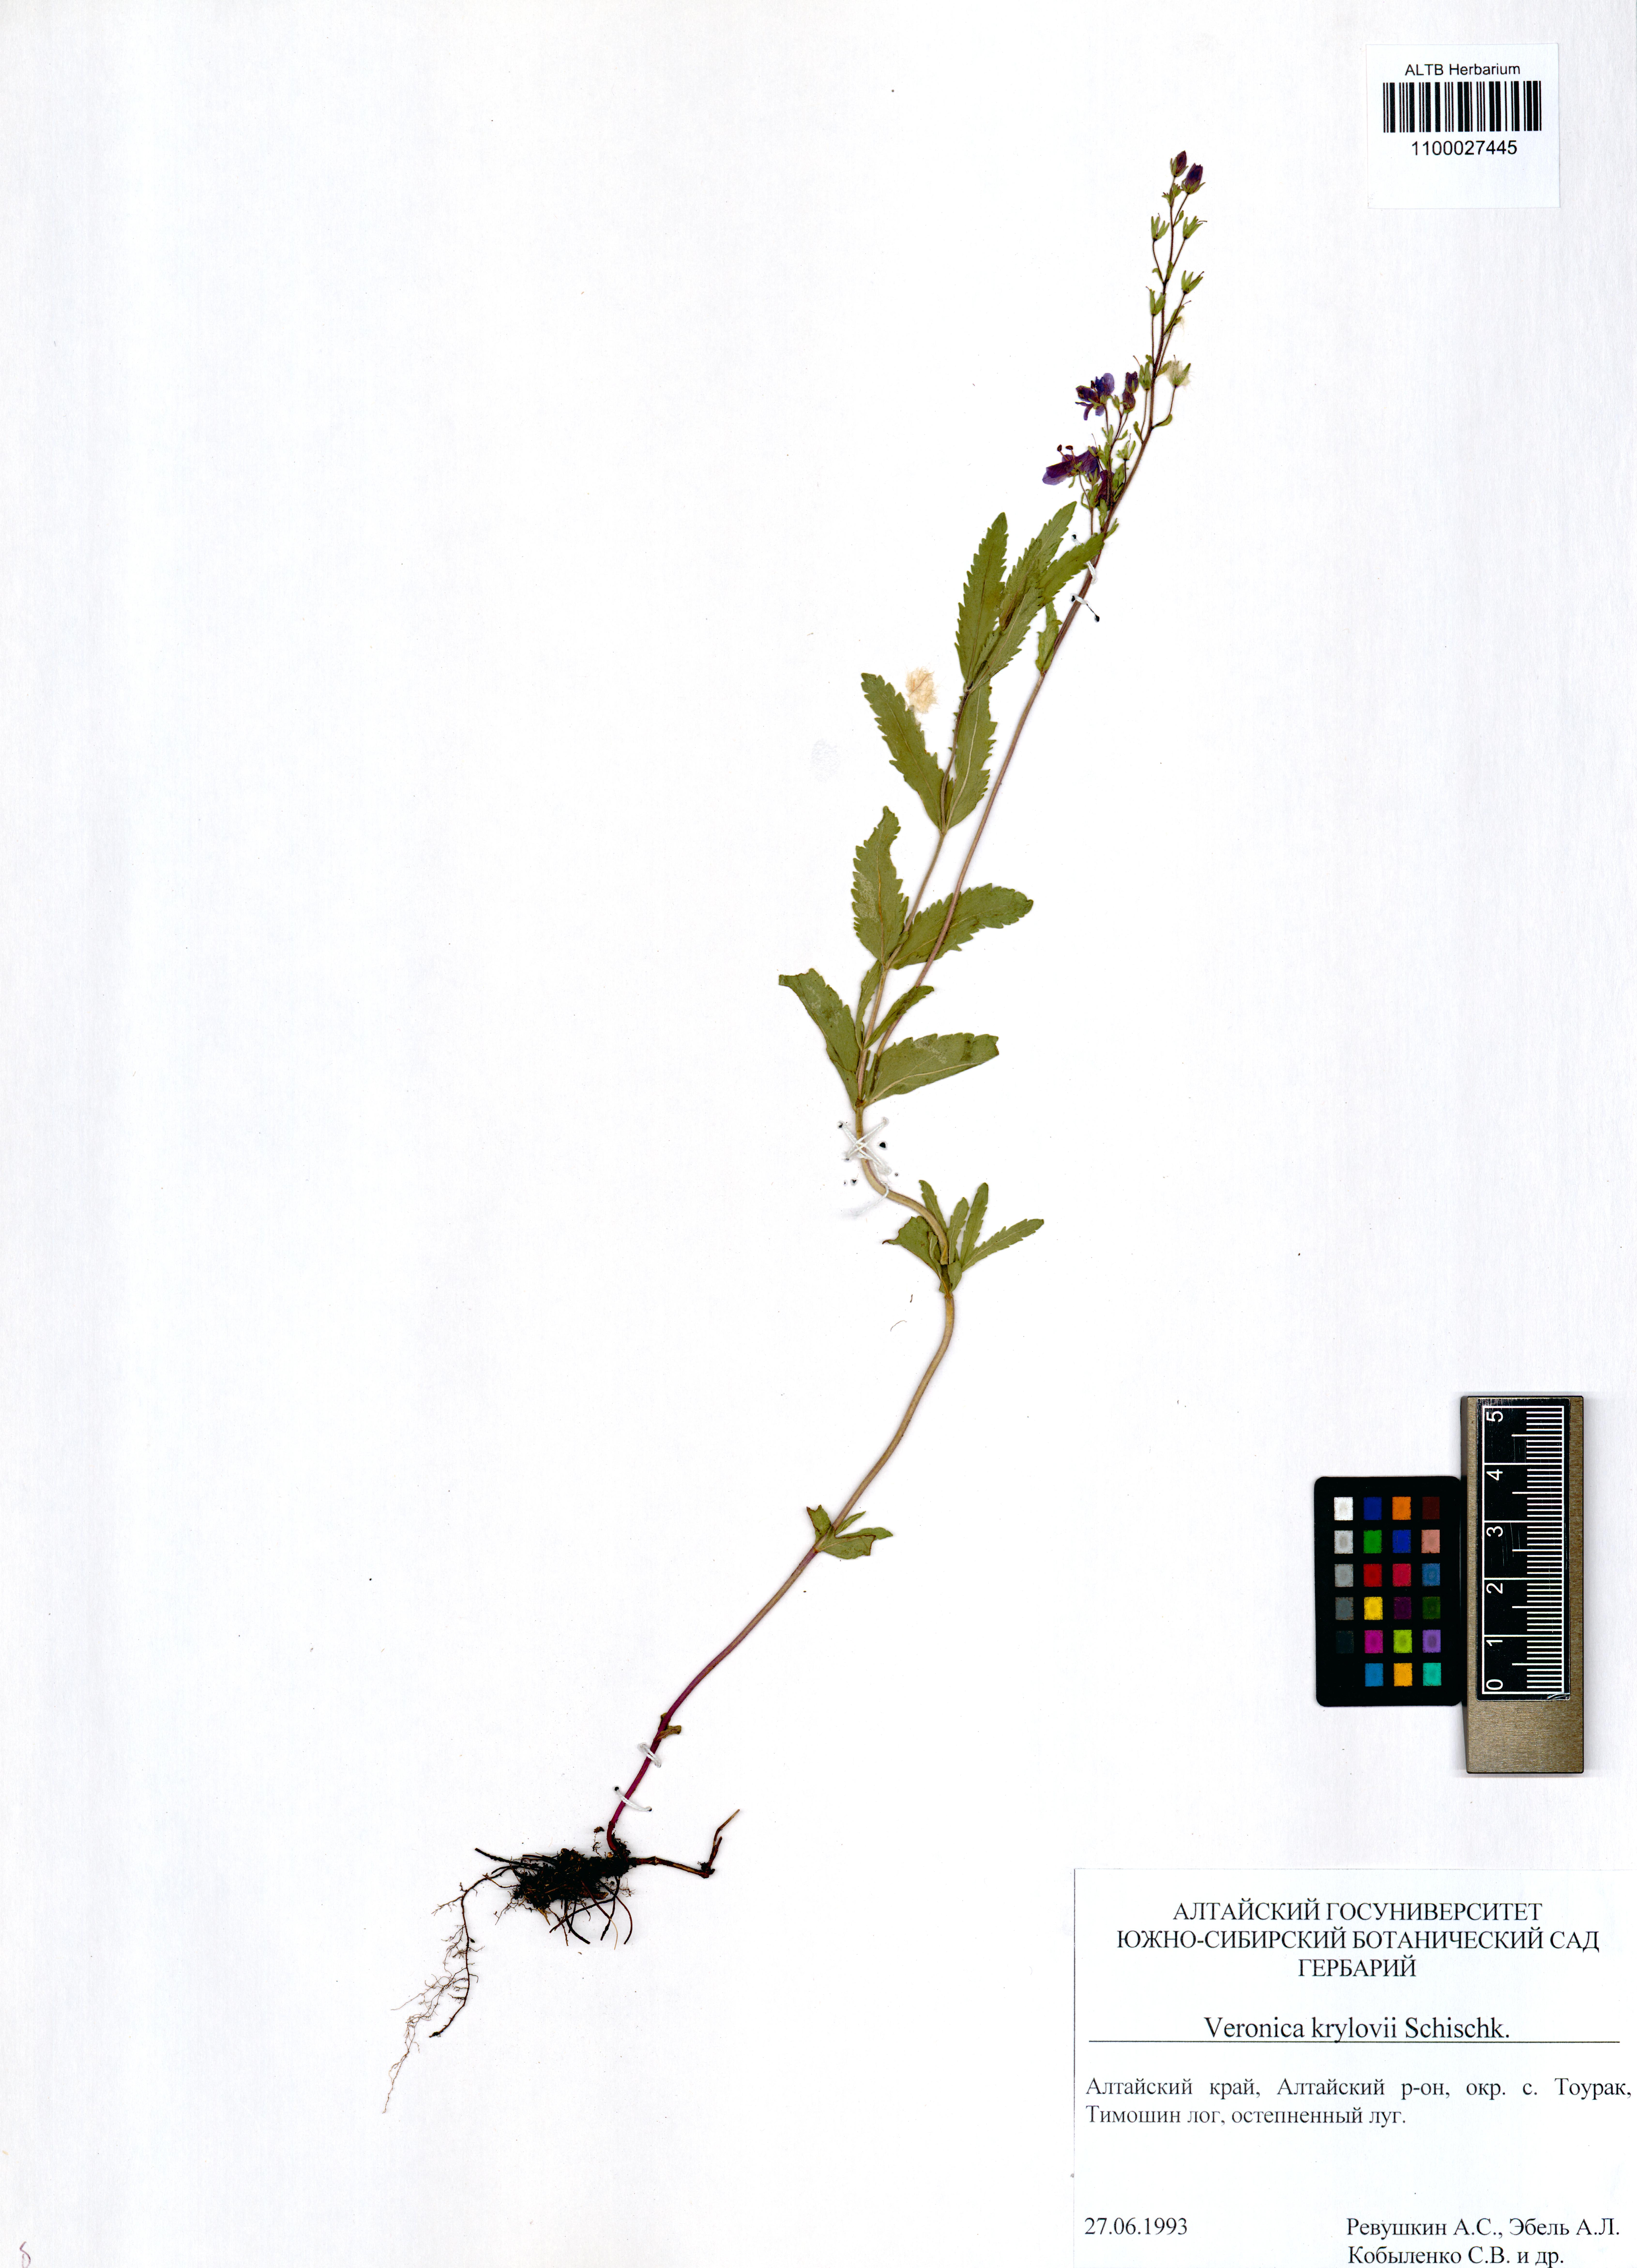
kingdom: Plantae
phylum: Tracheophyta
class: Magnoliopsida
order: Lamiales
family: Plantaginaceae
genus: Veronica
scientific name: Veronica krylovii
